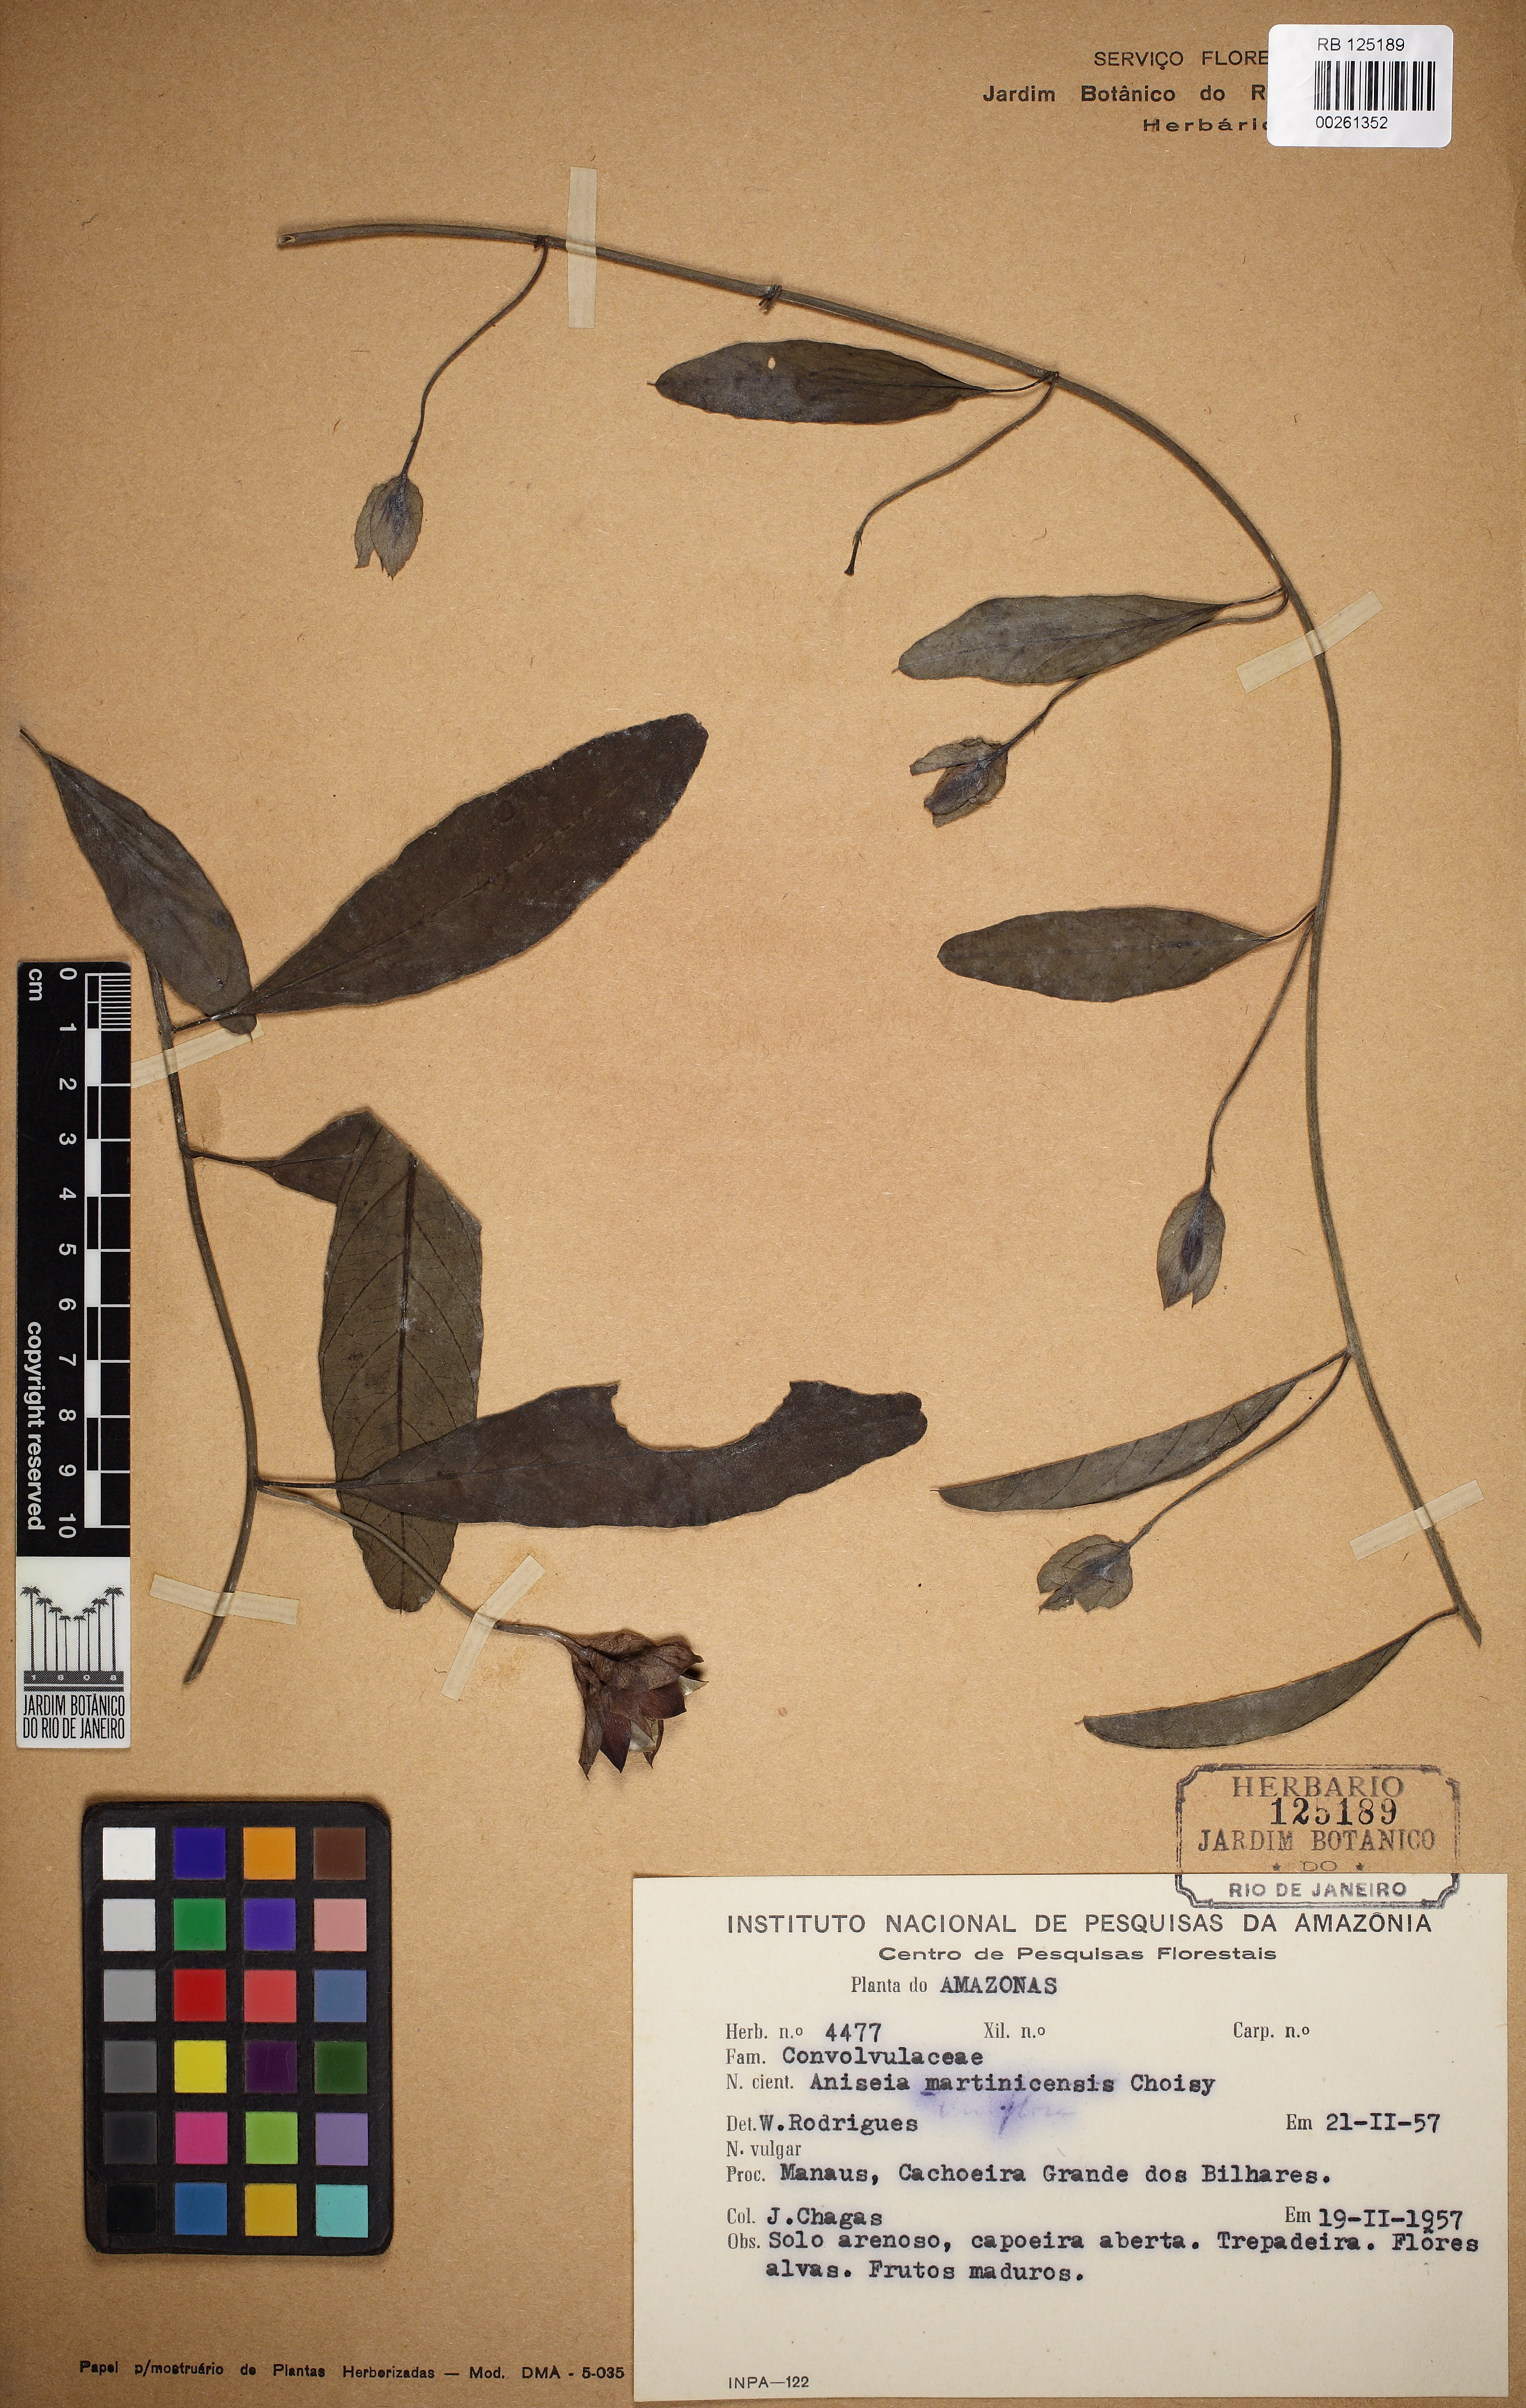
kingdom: Plantae
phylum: Tracheophyta
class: Magnoliopsida
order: Solanales
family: Convolvulaceae
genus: Aniseia
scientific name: Aniseia martinicensis
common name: Kulayadambu
